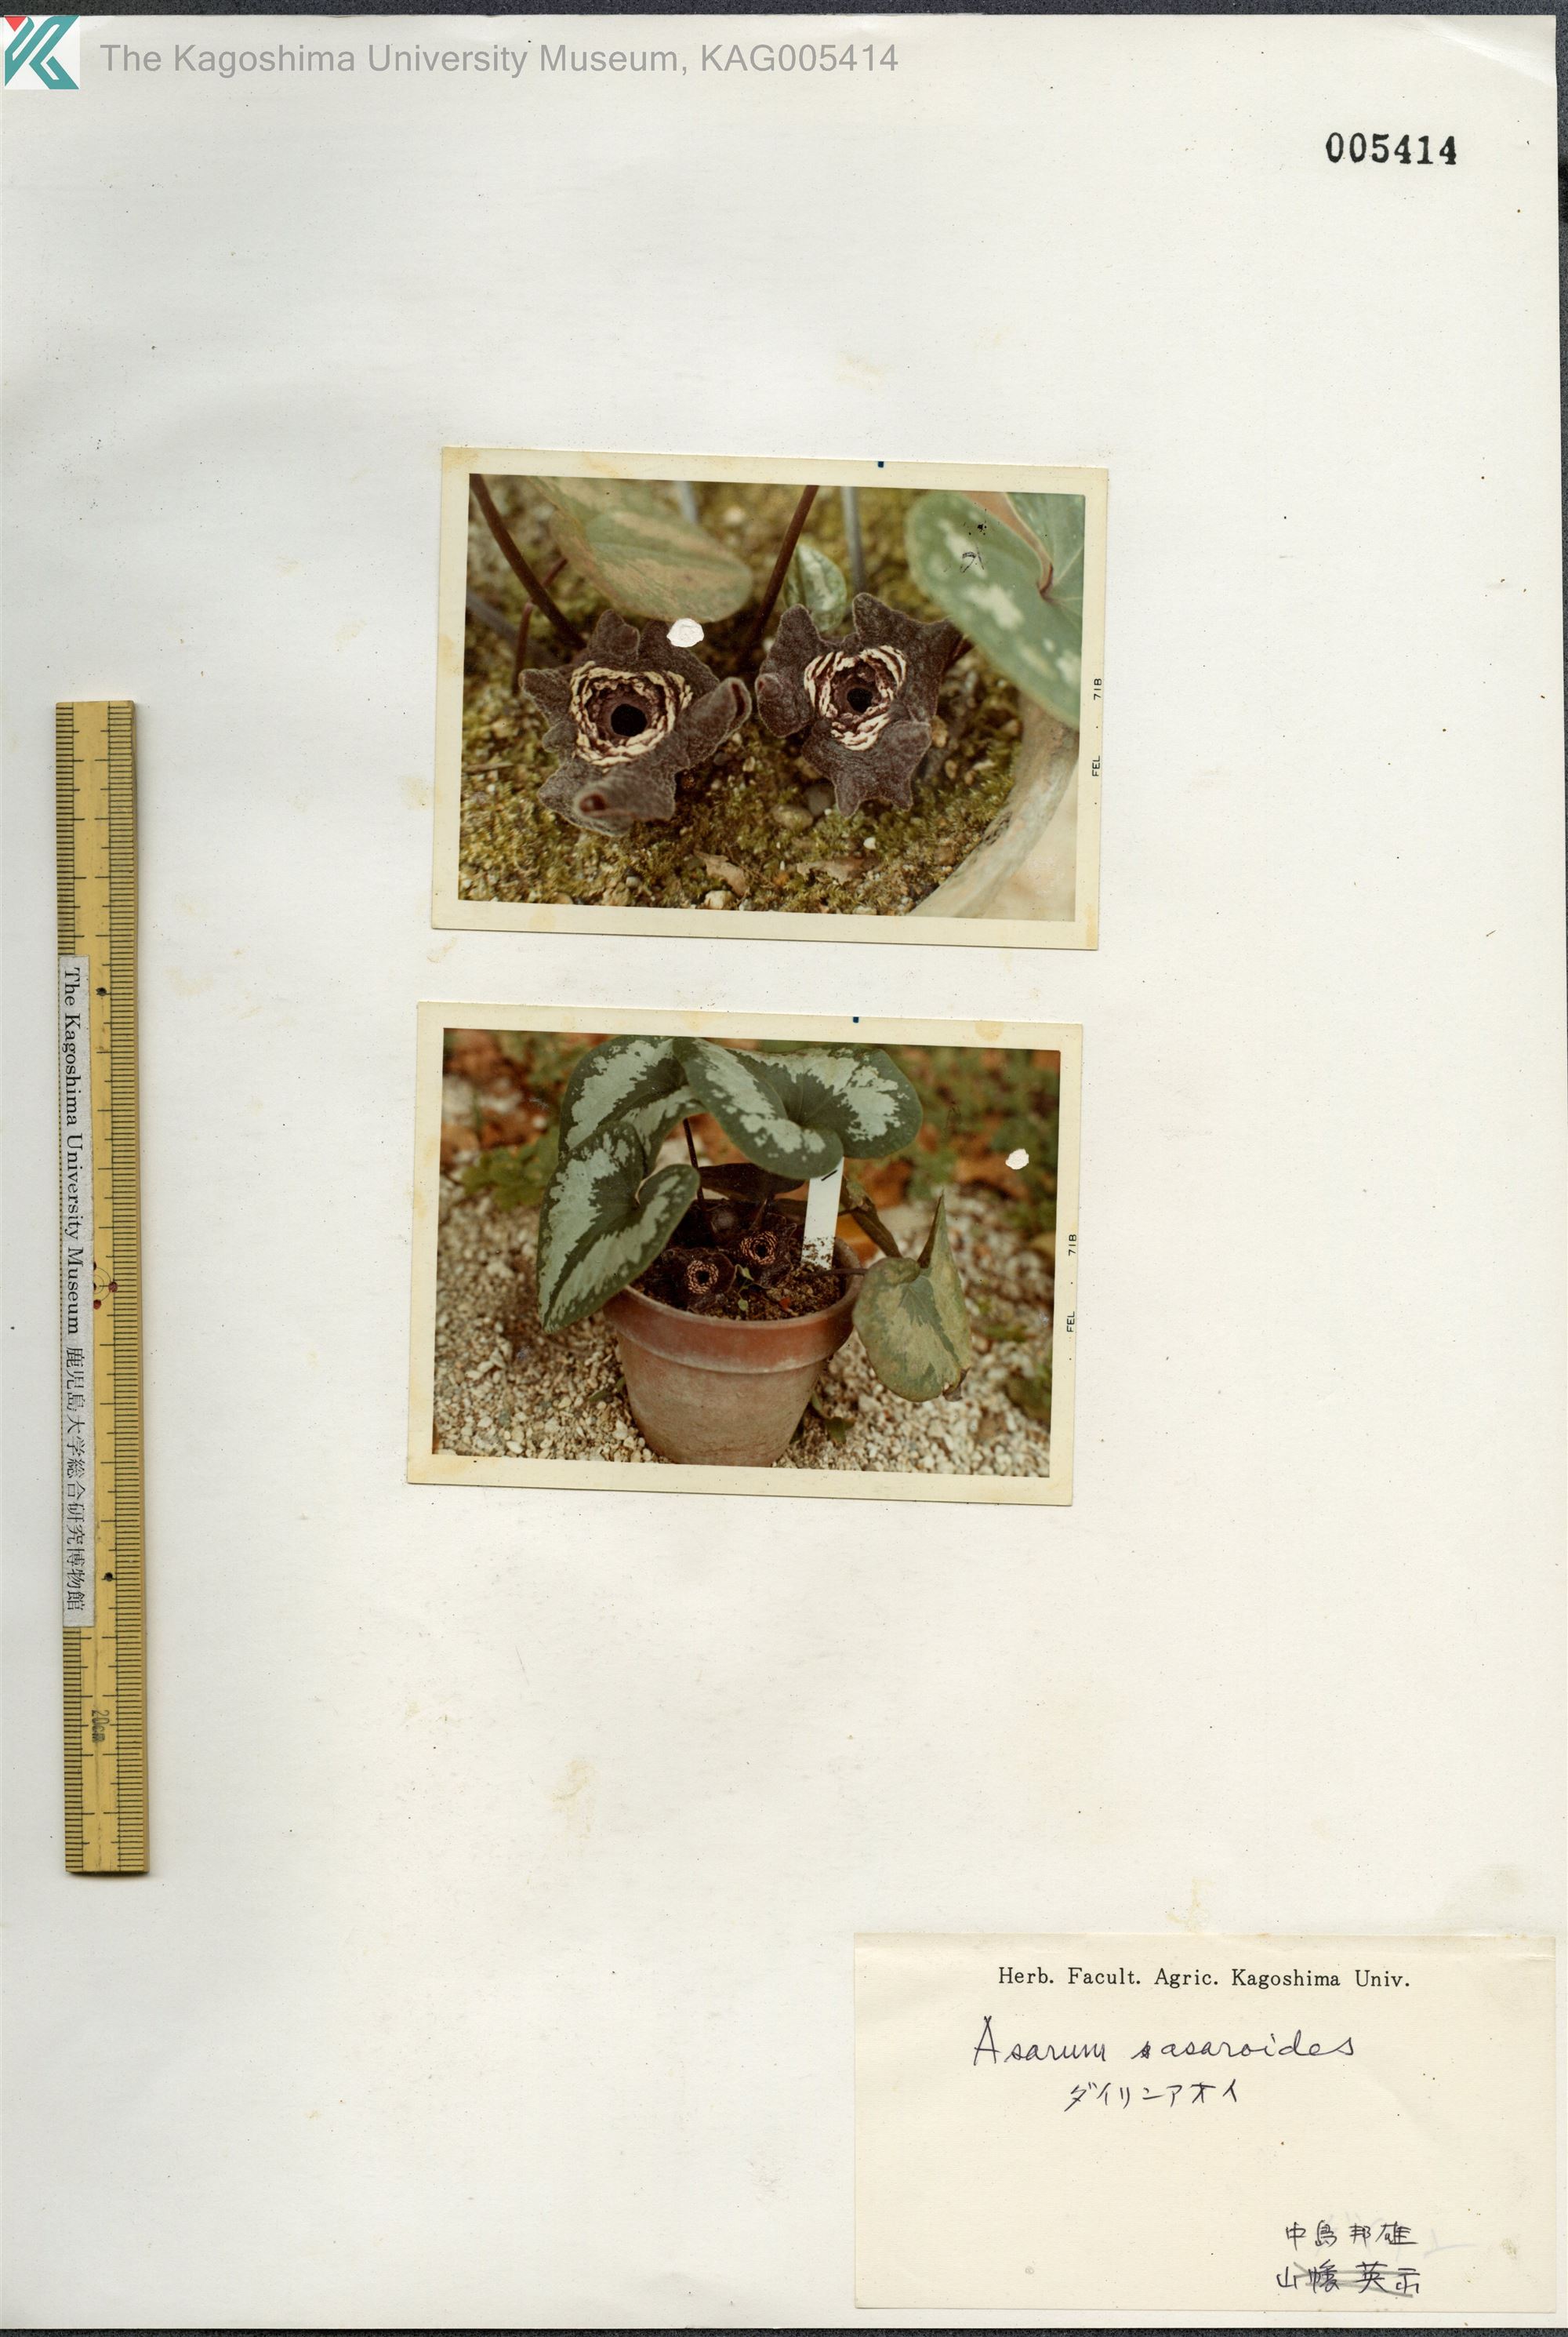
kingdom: Plantae
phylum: Tracheophyta
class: Magnoliopsida
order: Piperales
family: Aristolochiaceae
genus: Asarum
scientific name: Asarum asaroides
